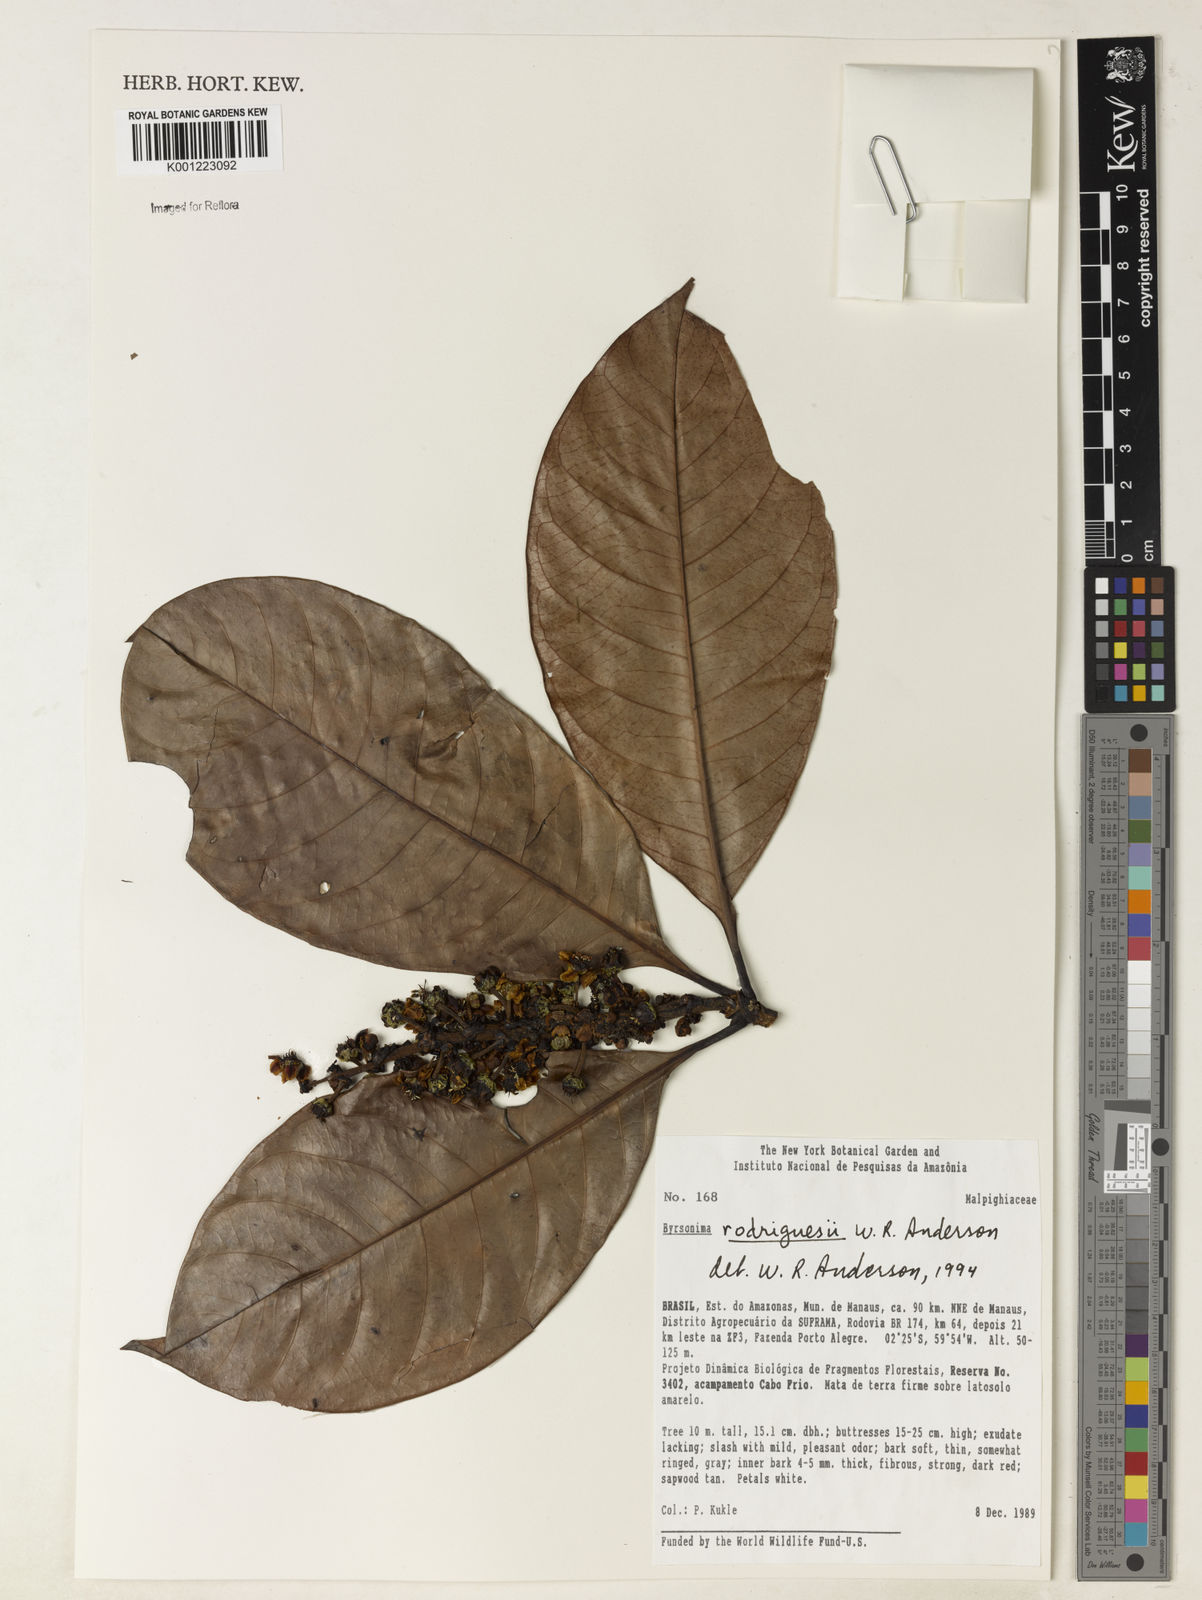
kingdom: Plantae
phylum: Tracheophyta
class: Magnoliopsida
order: Malpighiales
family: Malpighiaceae
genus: Byrsonima
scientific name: Byrsonima rodriguesii
